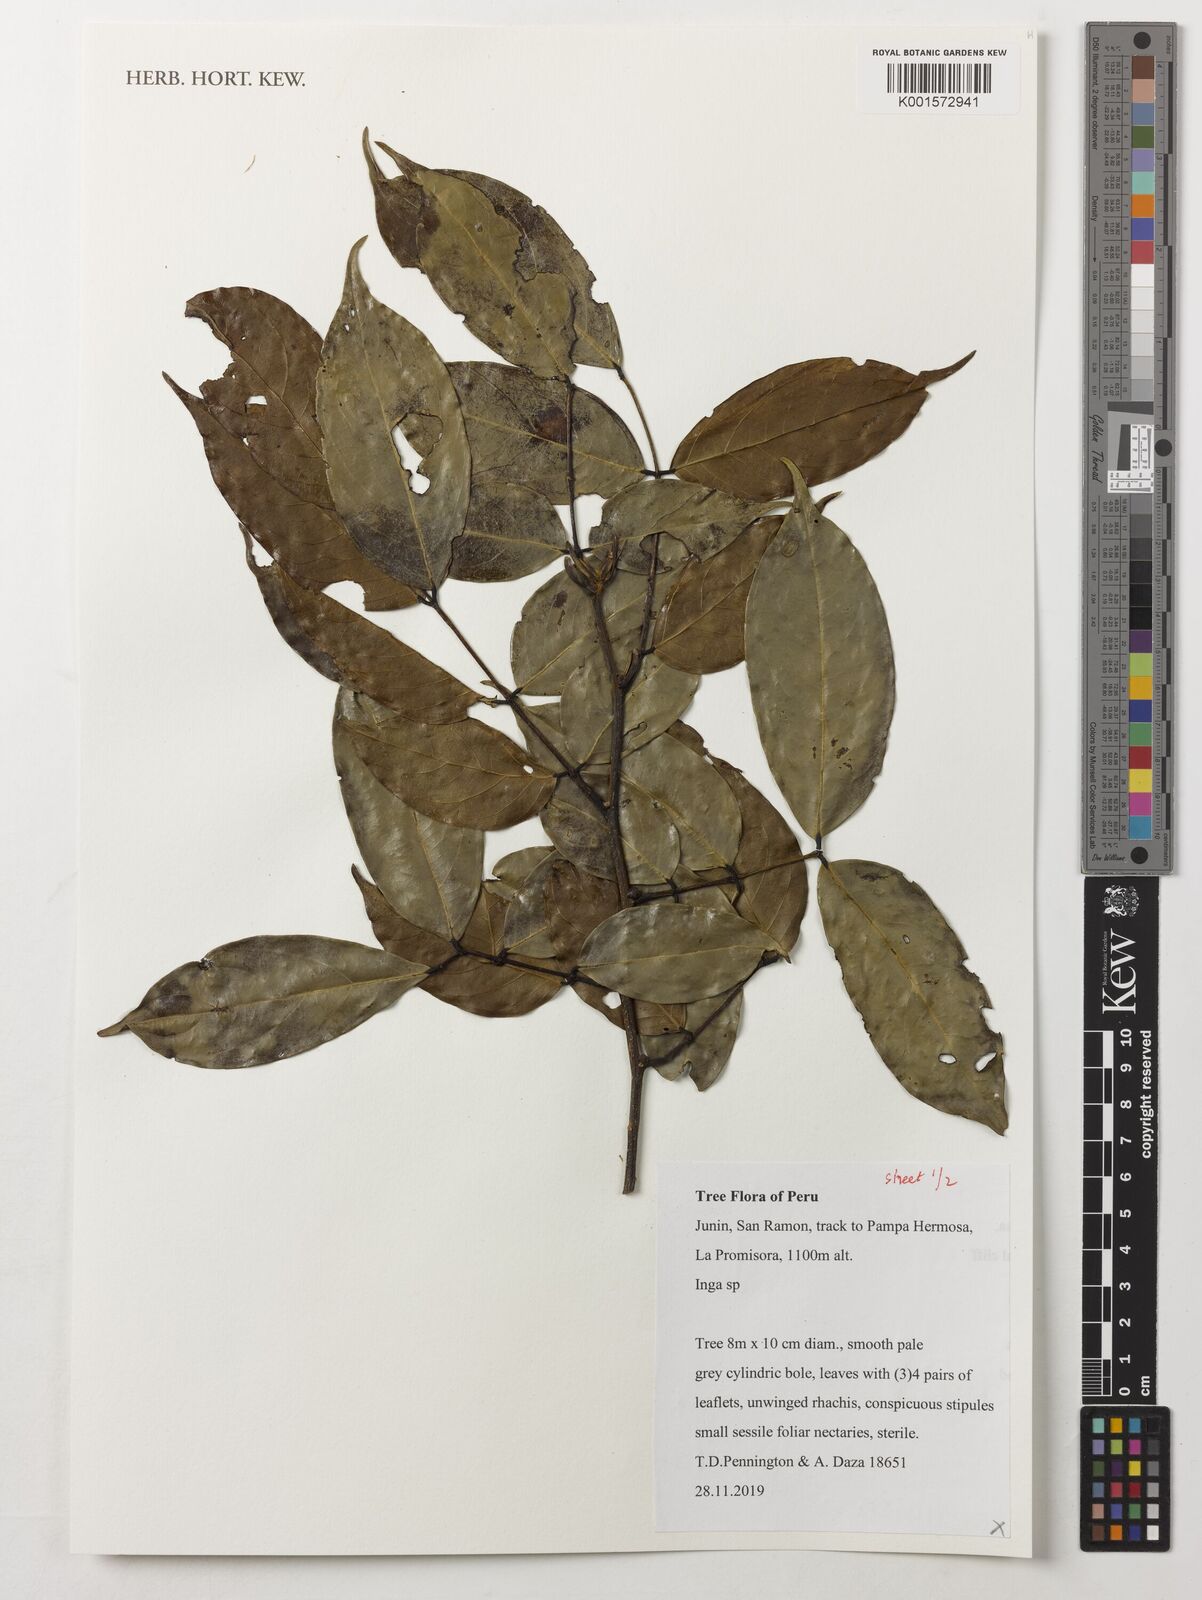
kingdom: Plantae
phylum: Tracheophyta
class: Magnoliopsida
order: Fabales
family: Fabaceae
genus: Inga
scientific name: Inga
